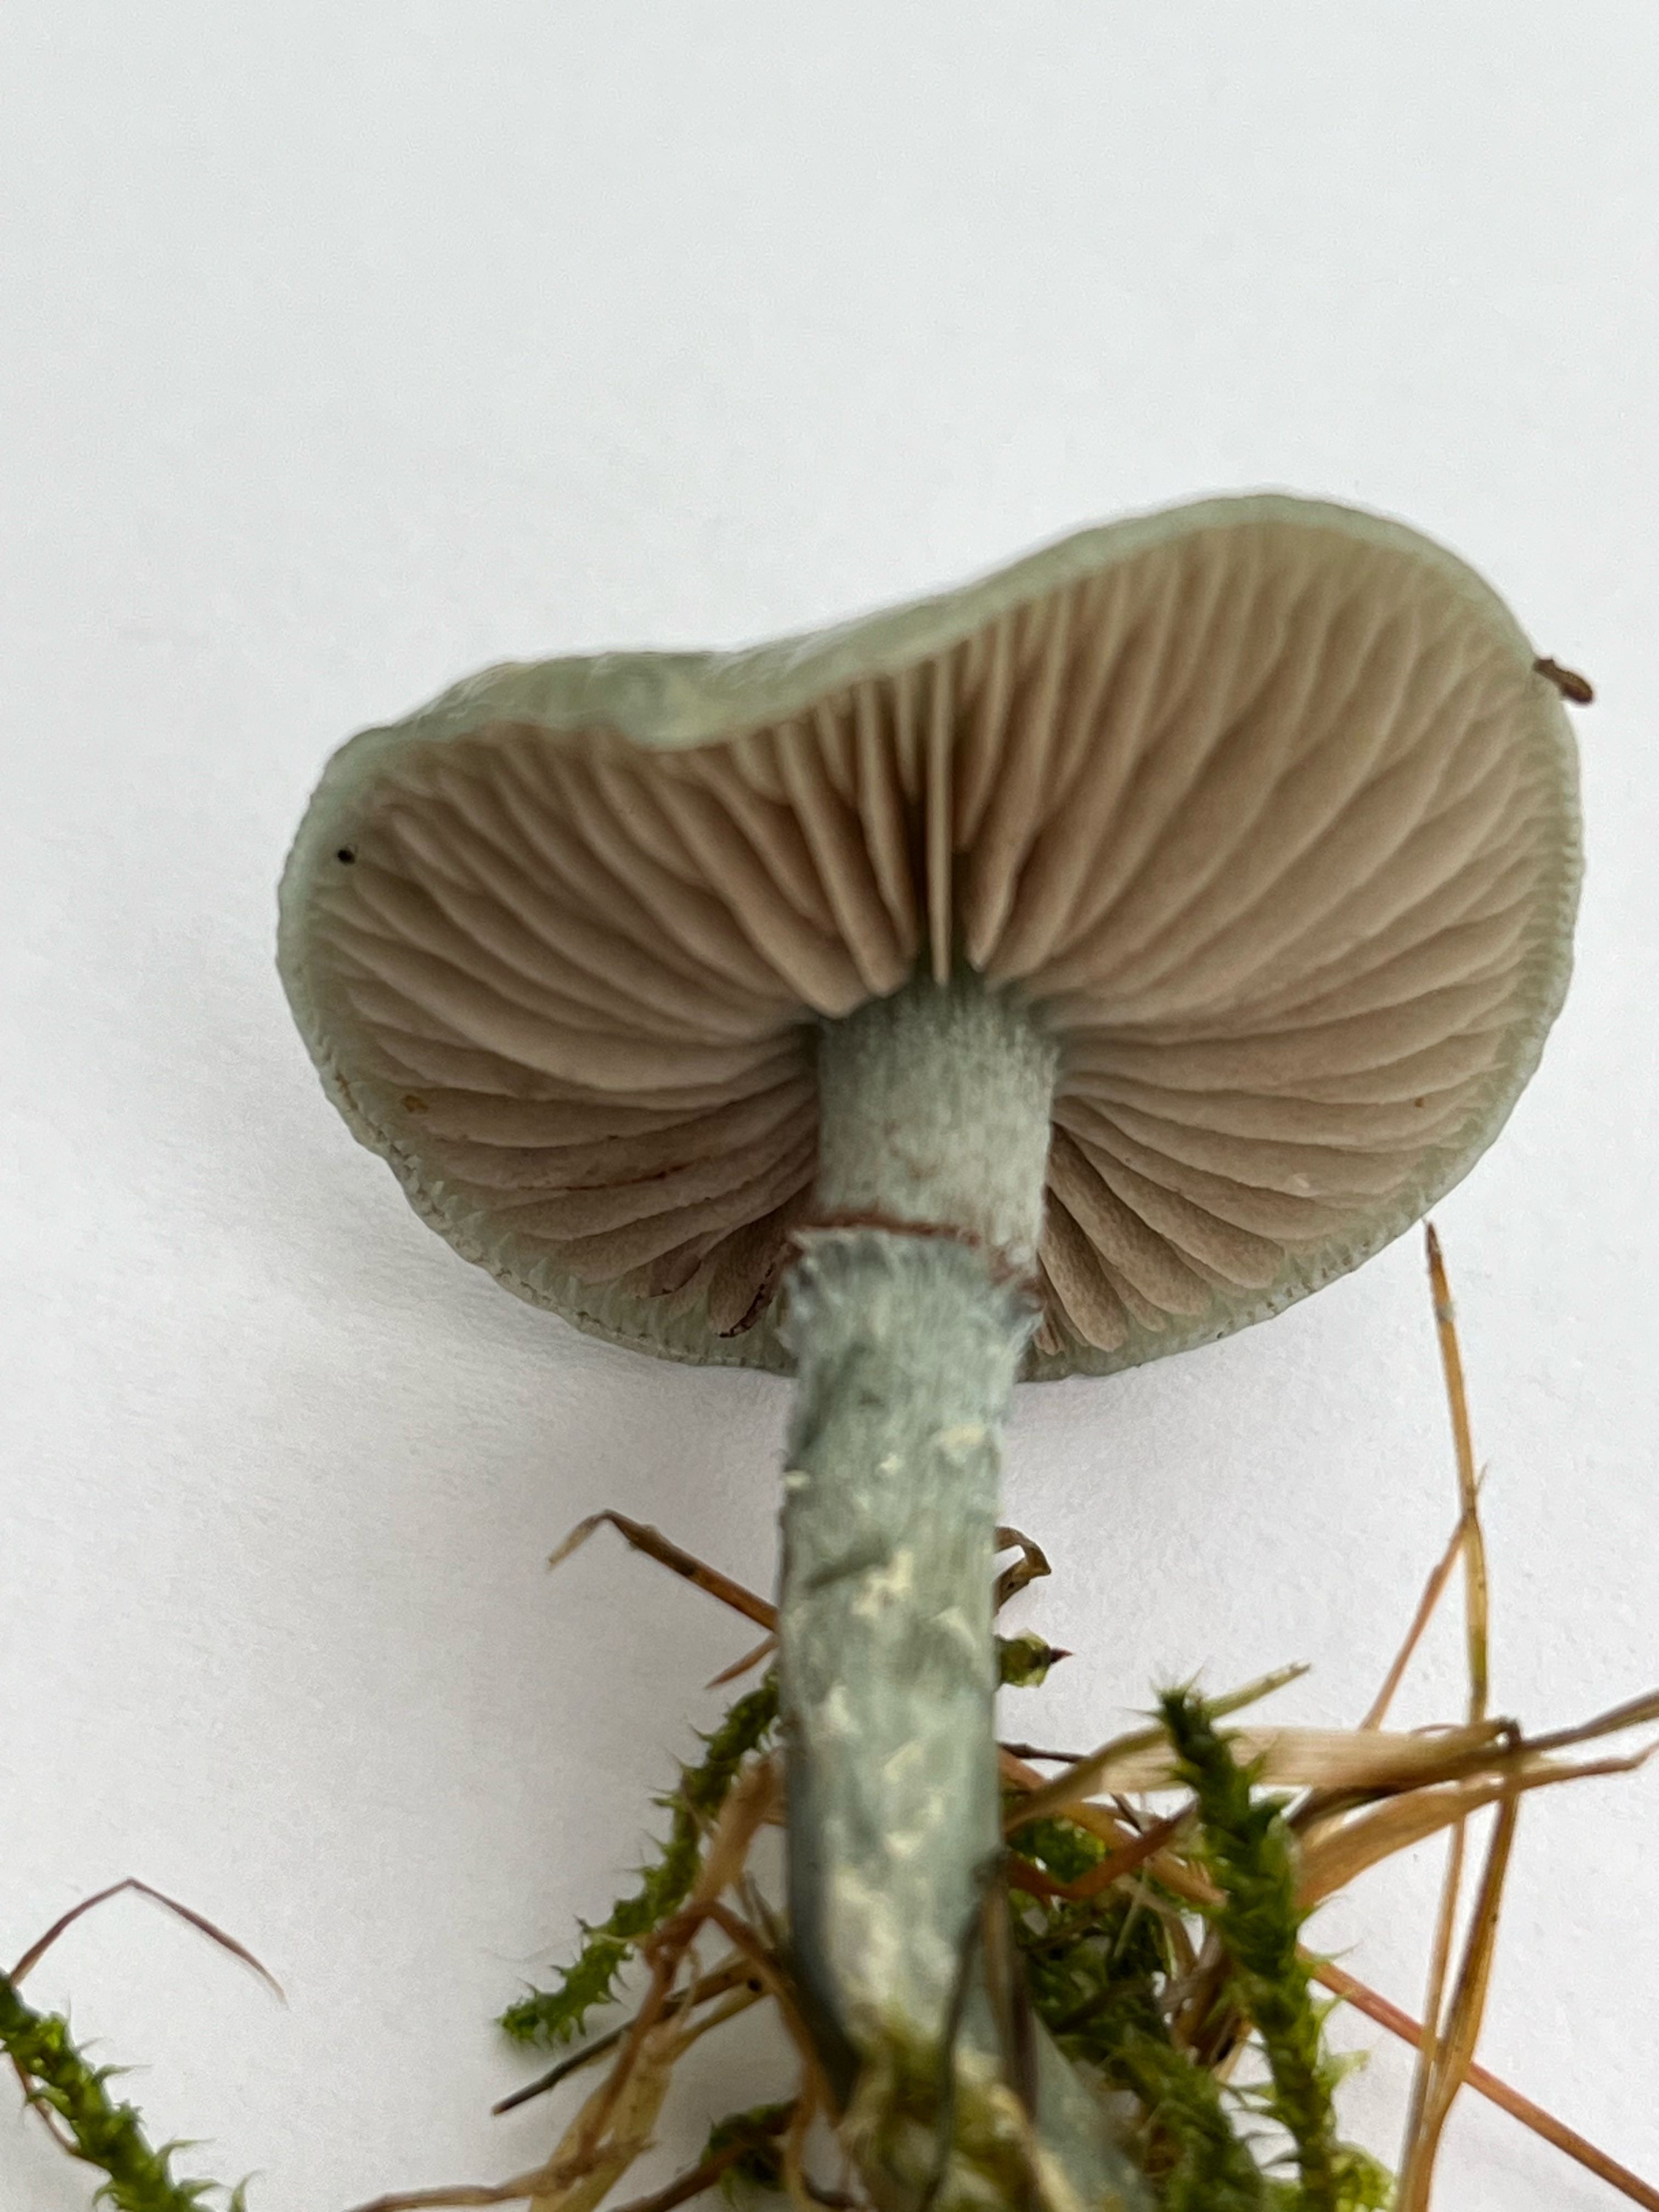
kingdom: Fungi
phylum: Basidiomycota
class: Agaricomycetes
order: Agaricales
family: Strophariaceae
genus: Stropharia
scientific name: Stropharia cyanea
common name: blågrøn bredblad
